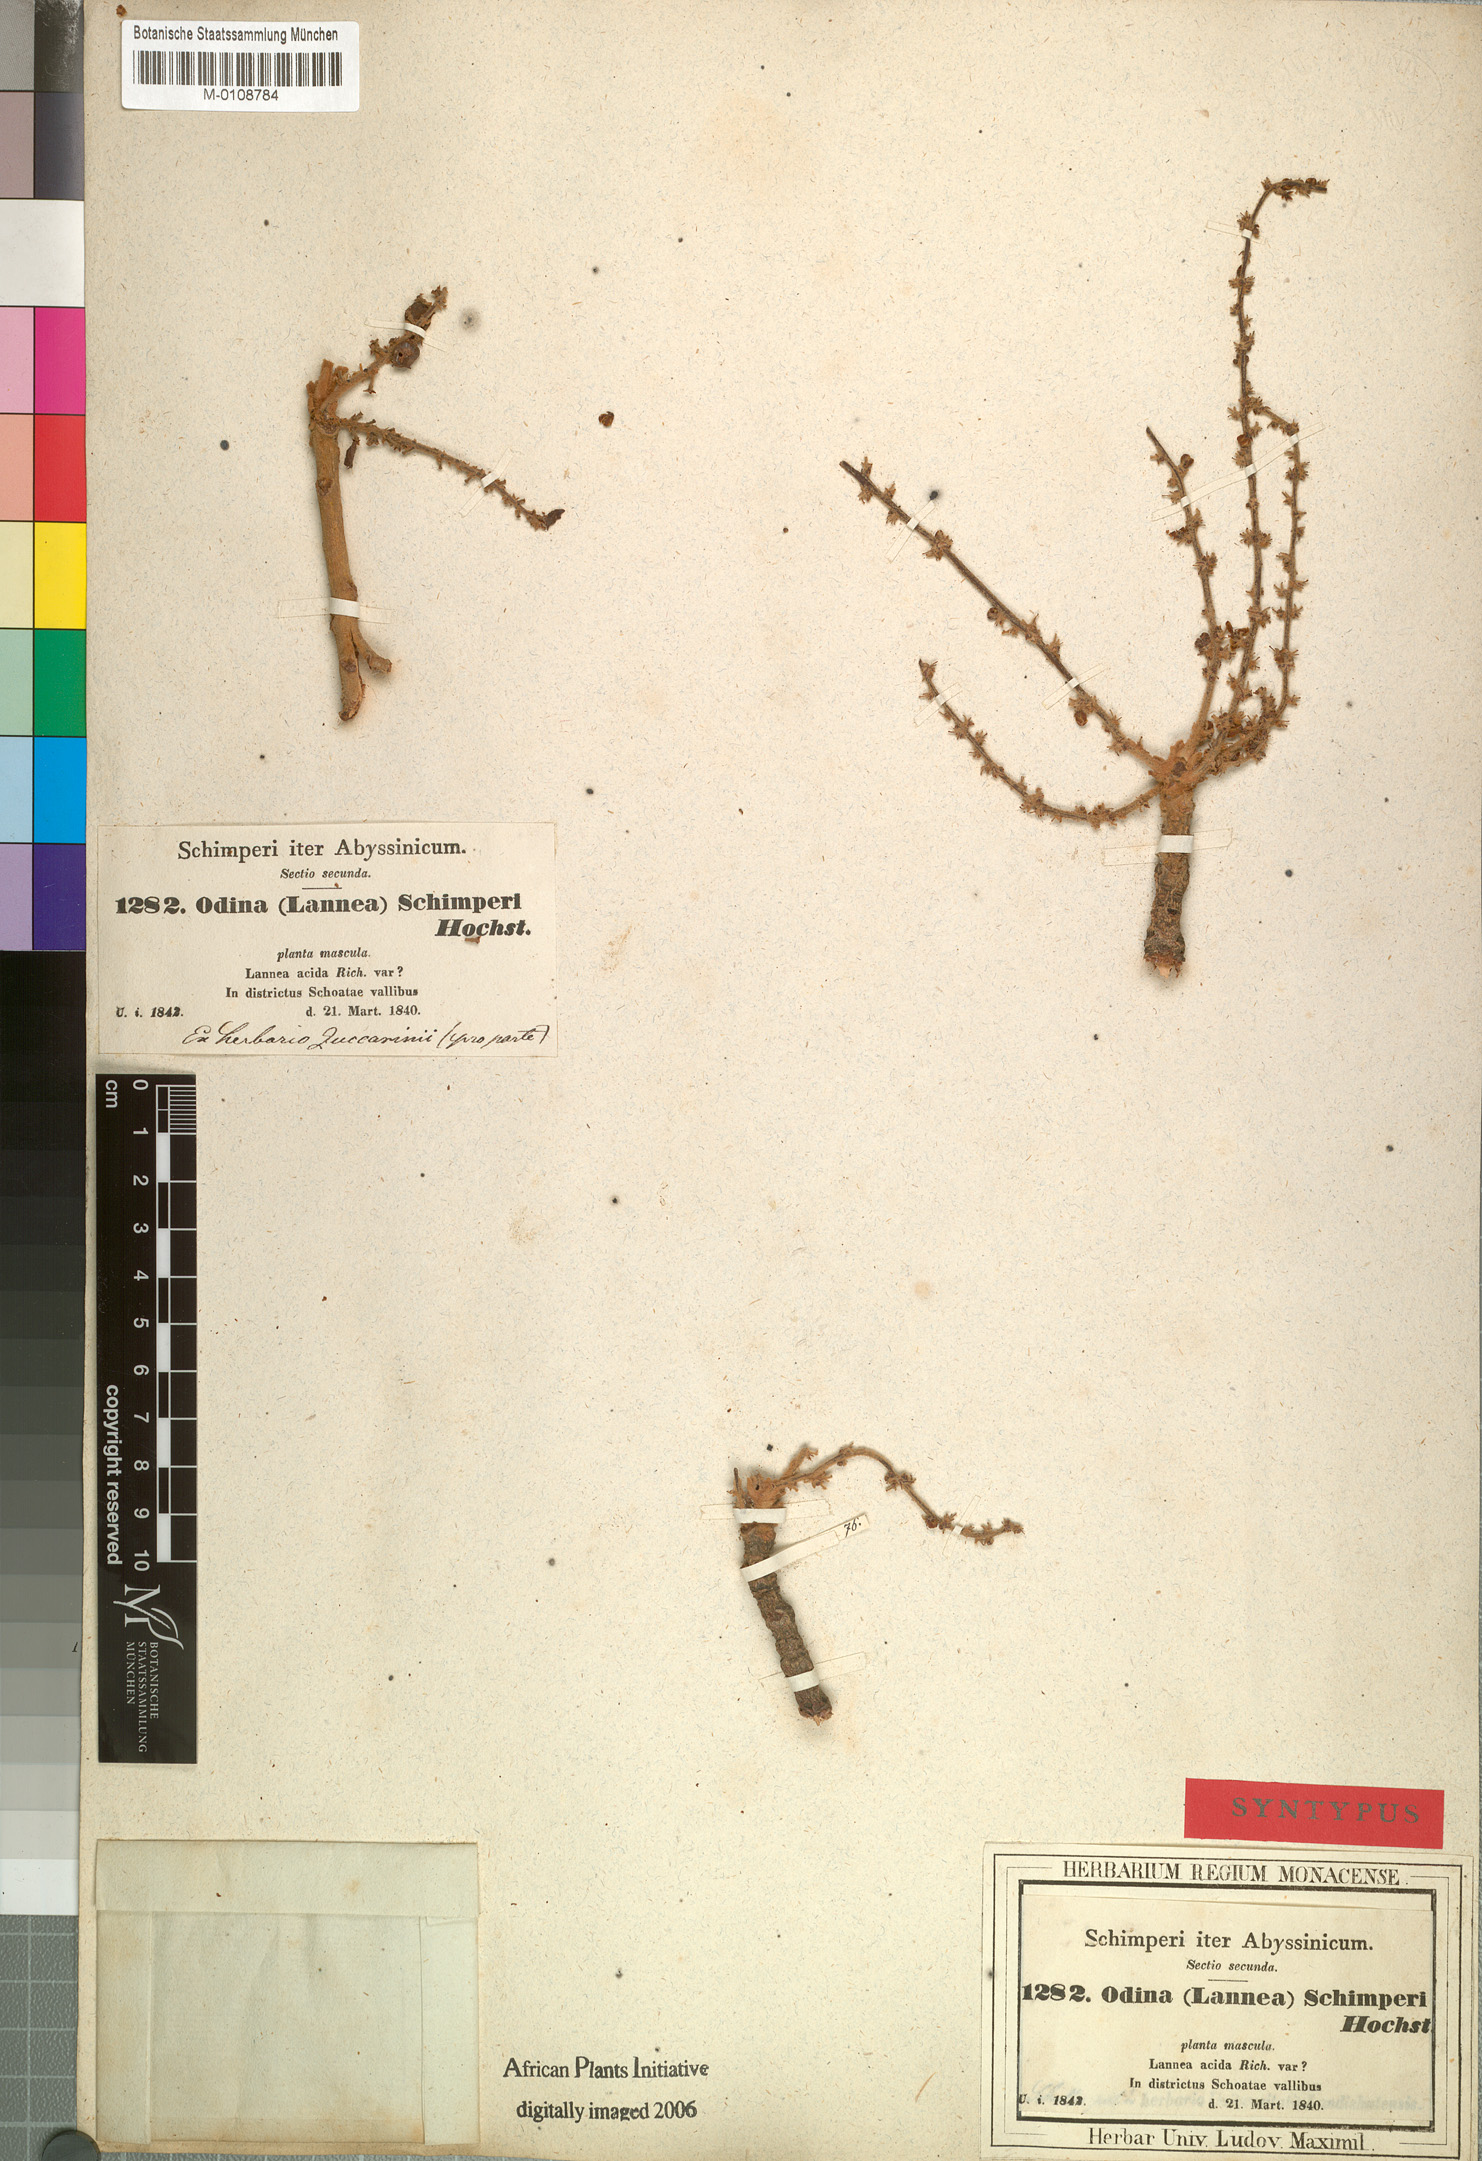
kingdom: Plantae
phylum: Tracheophyta
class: Magnoliopsida
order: Sapindales
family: Anacardiaceae
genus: Lannea
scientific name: Lannea schimperi
